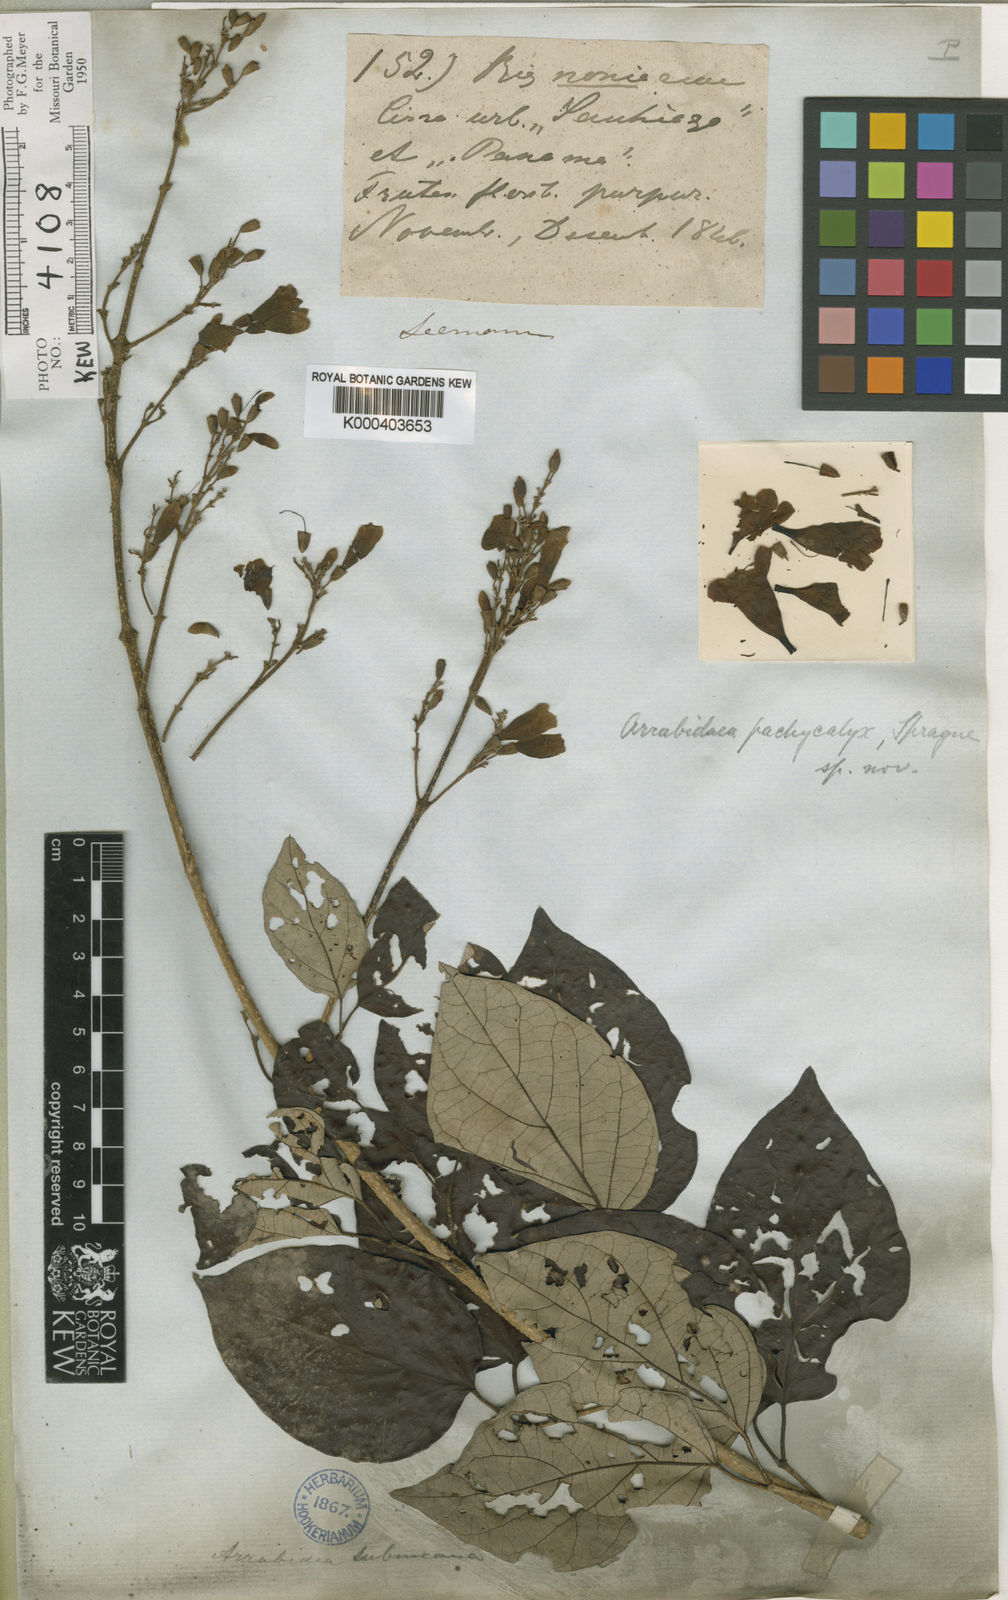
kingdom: Plantae
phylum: Tracheophyta
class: Magnoliopsida
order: Lamiales
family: Bignoniaceae
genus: Fridericia
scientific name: Fridericia candicans
